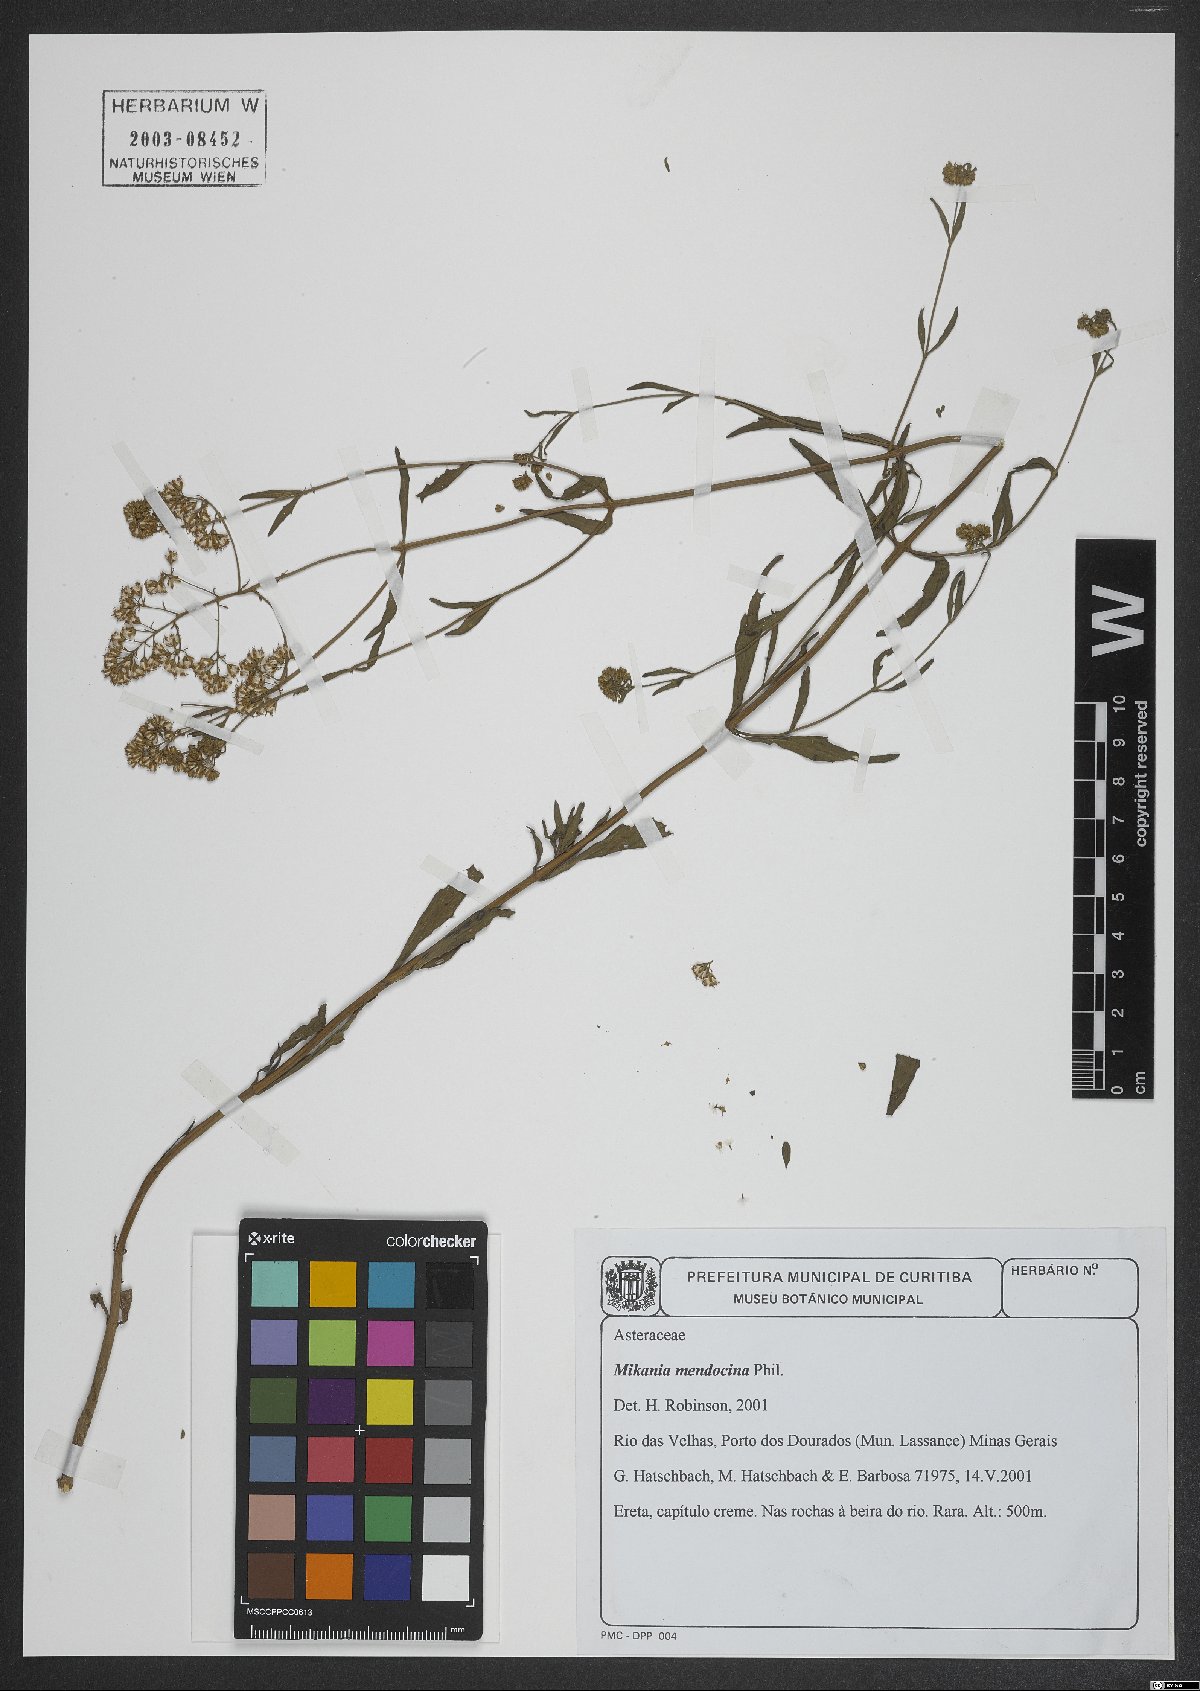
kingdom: Plantae
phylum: Tracheophyta
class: Magnoliopsida
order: Asterales
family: Asteraceae
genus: Mikania
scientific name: Mikania mendocina
